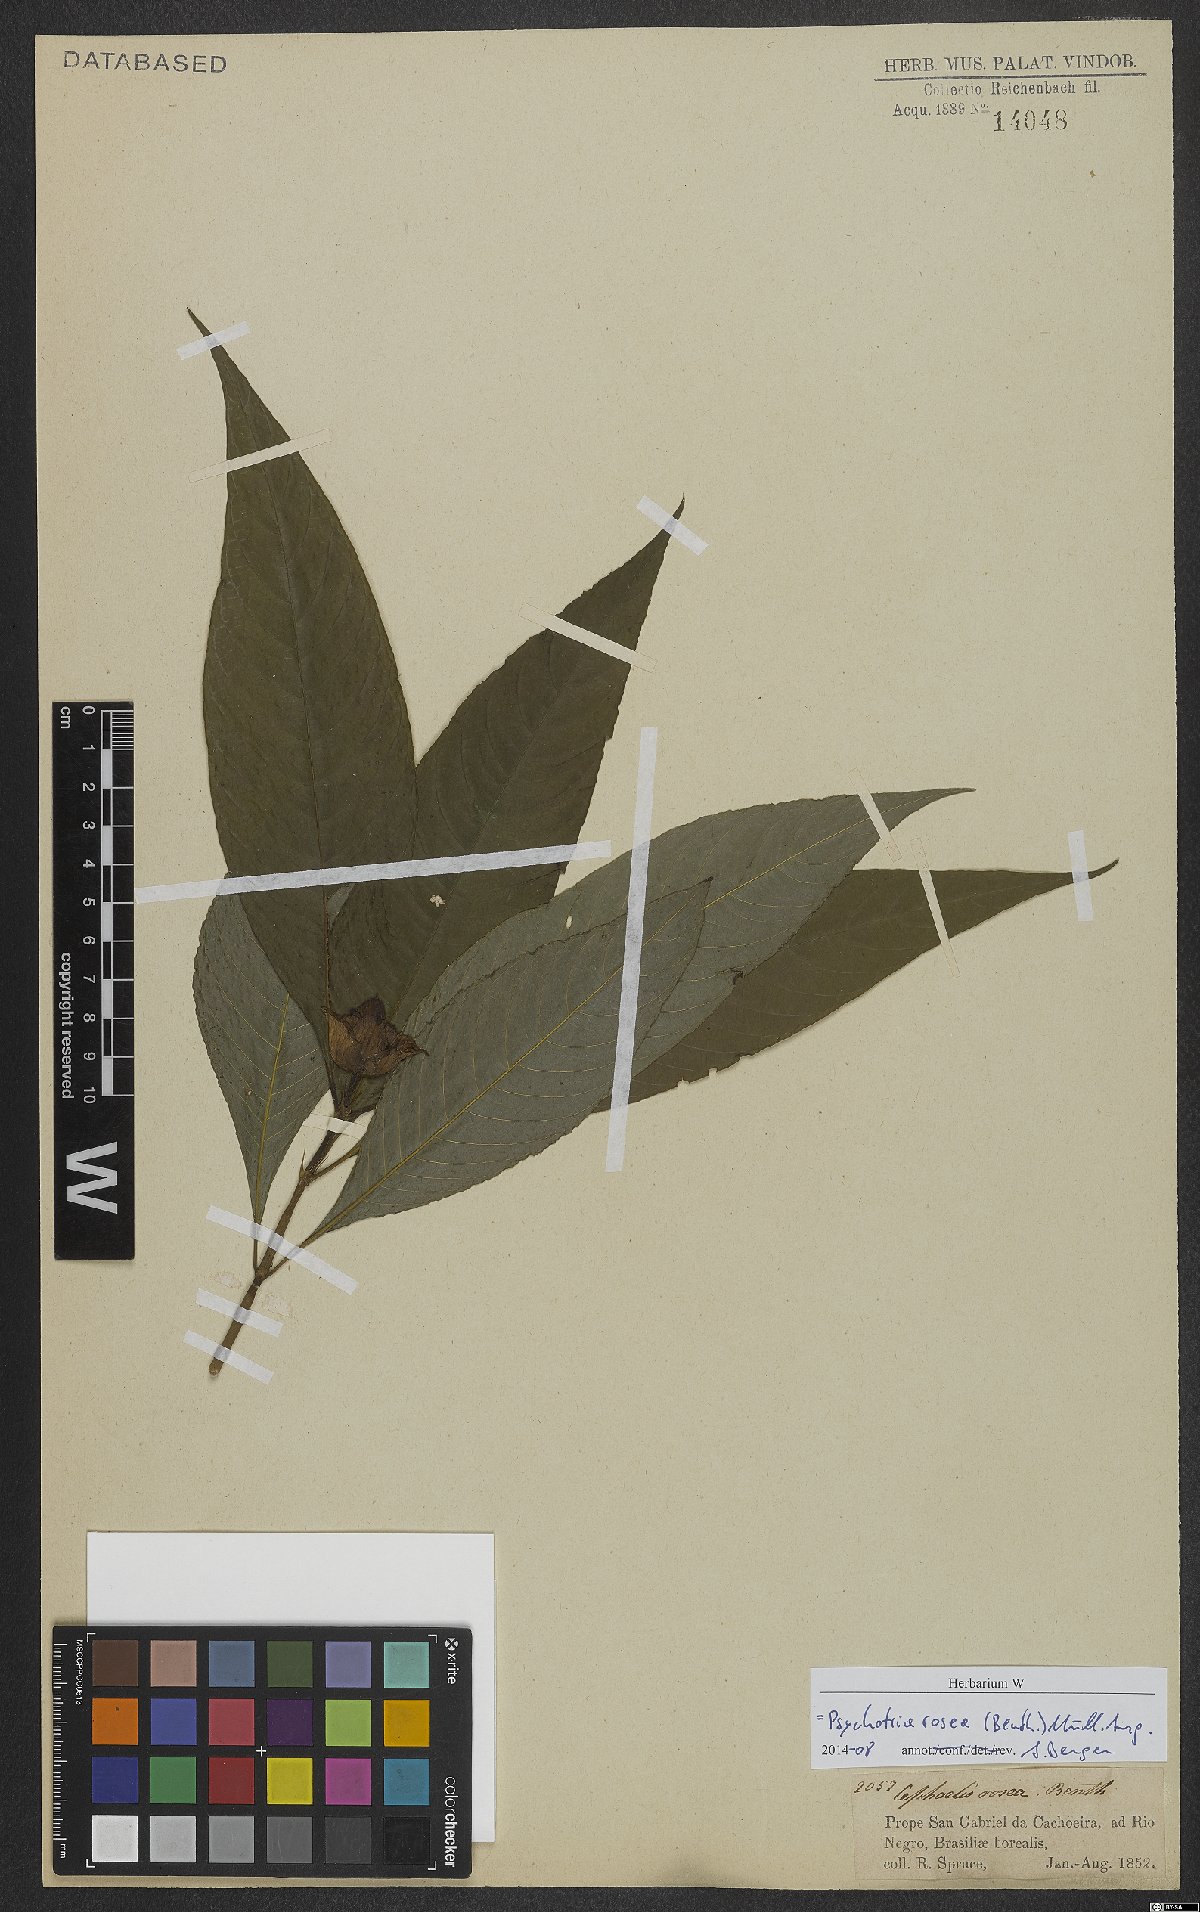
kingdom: Plantae
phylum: Tracheophyta
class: Magnoliopsida
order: Gentianales
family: Rubiaceae
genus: Palicourea
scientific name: Palicourea colorata
